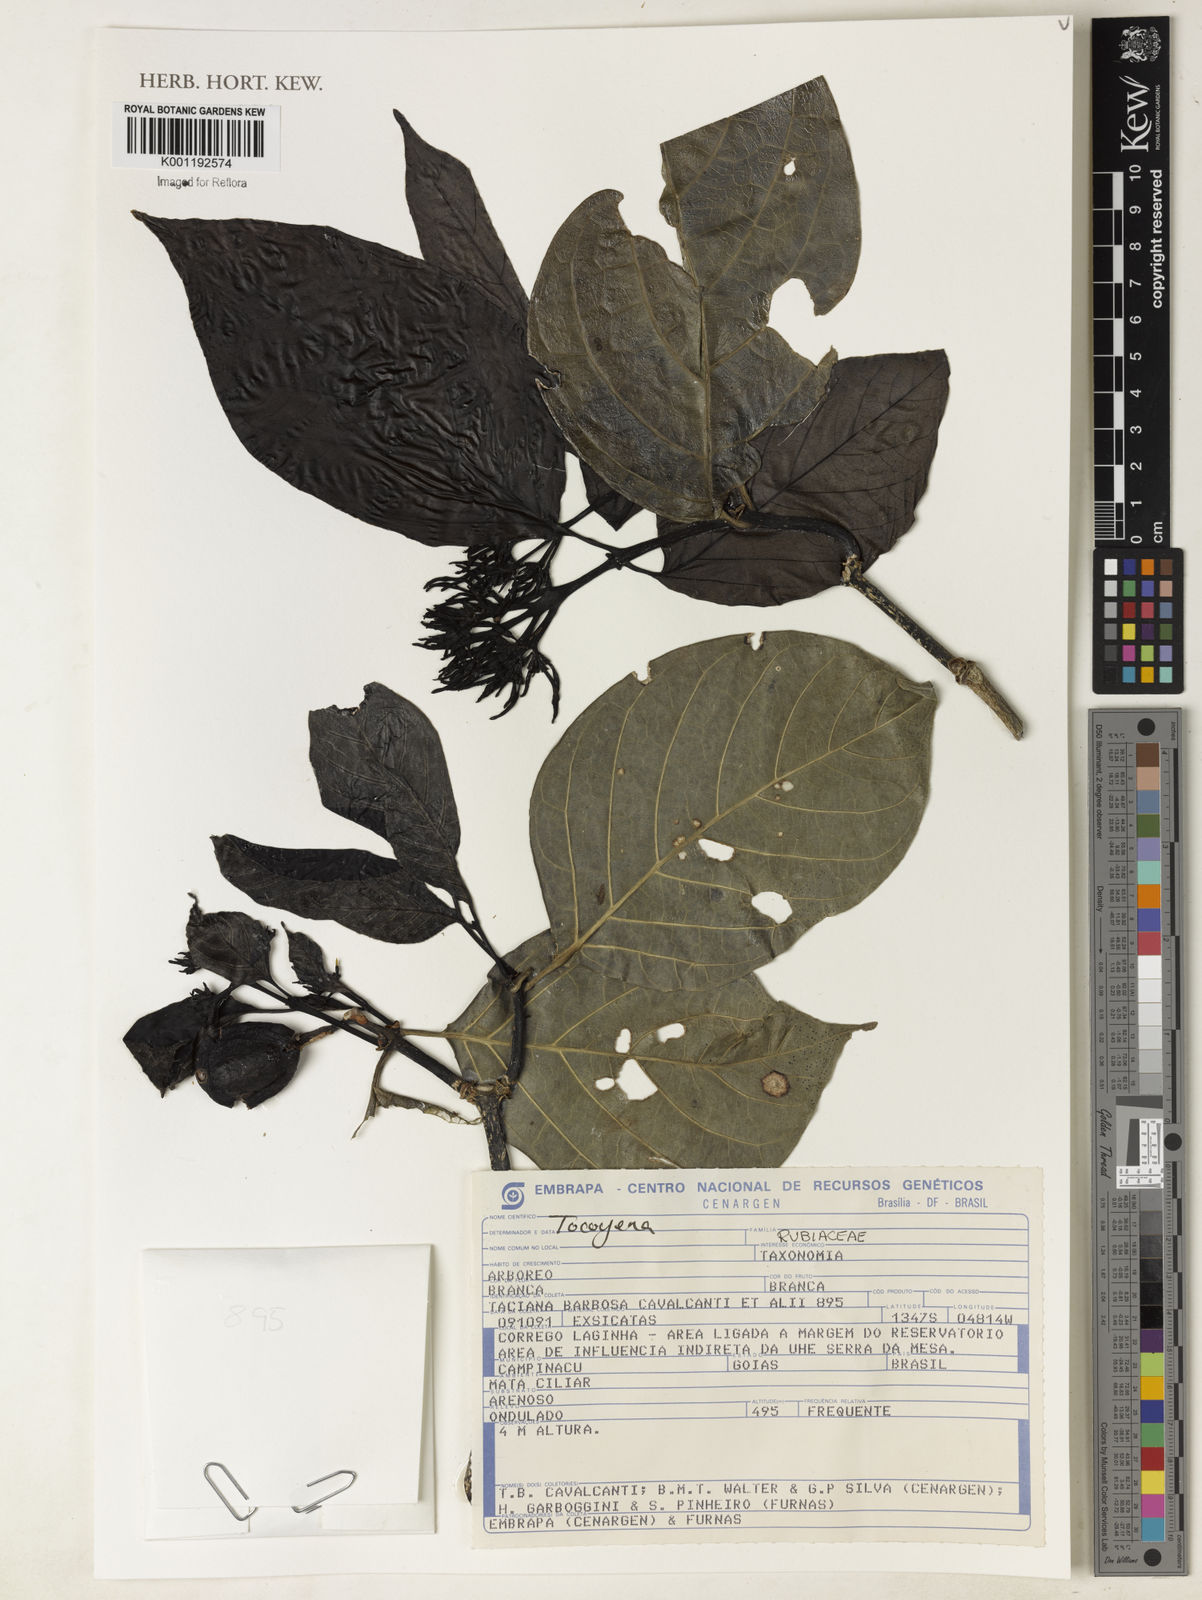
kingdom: Plantae
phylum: Tracheophyta
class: Magnoliopsida
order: Gentianales
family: Rubiaceae
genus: Rudgea
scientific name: Rudgea
